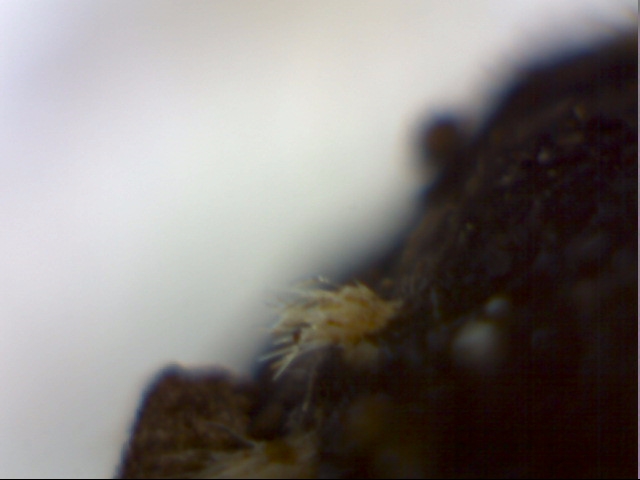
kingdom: Fungi
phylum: Ascomycota
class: Pezizomycetes
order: Pezizales
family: Ascodesmidaceae
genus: Lasiobolus
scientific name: Lasiobolus
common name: øjebæger
